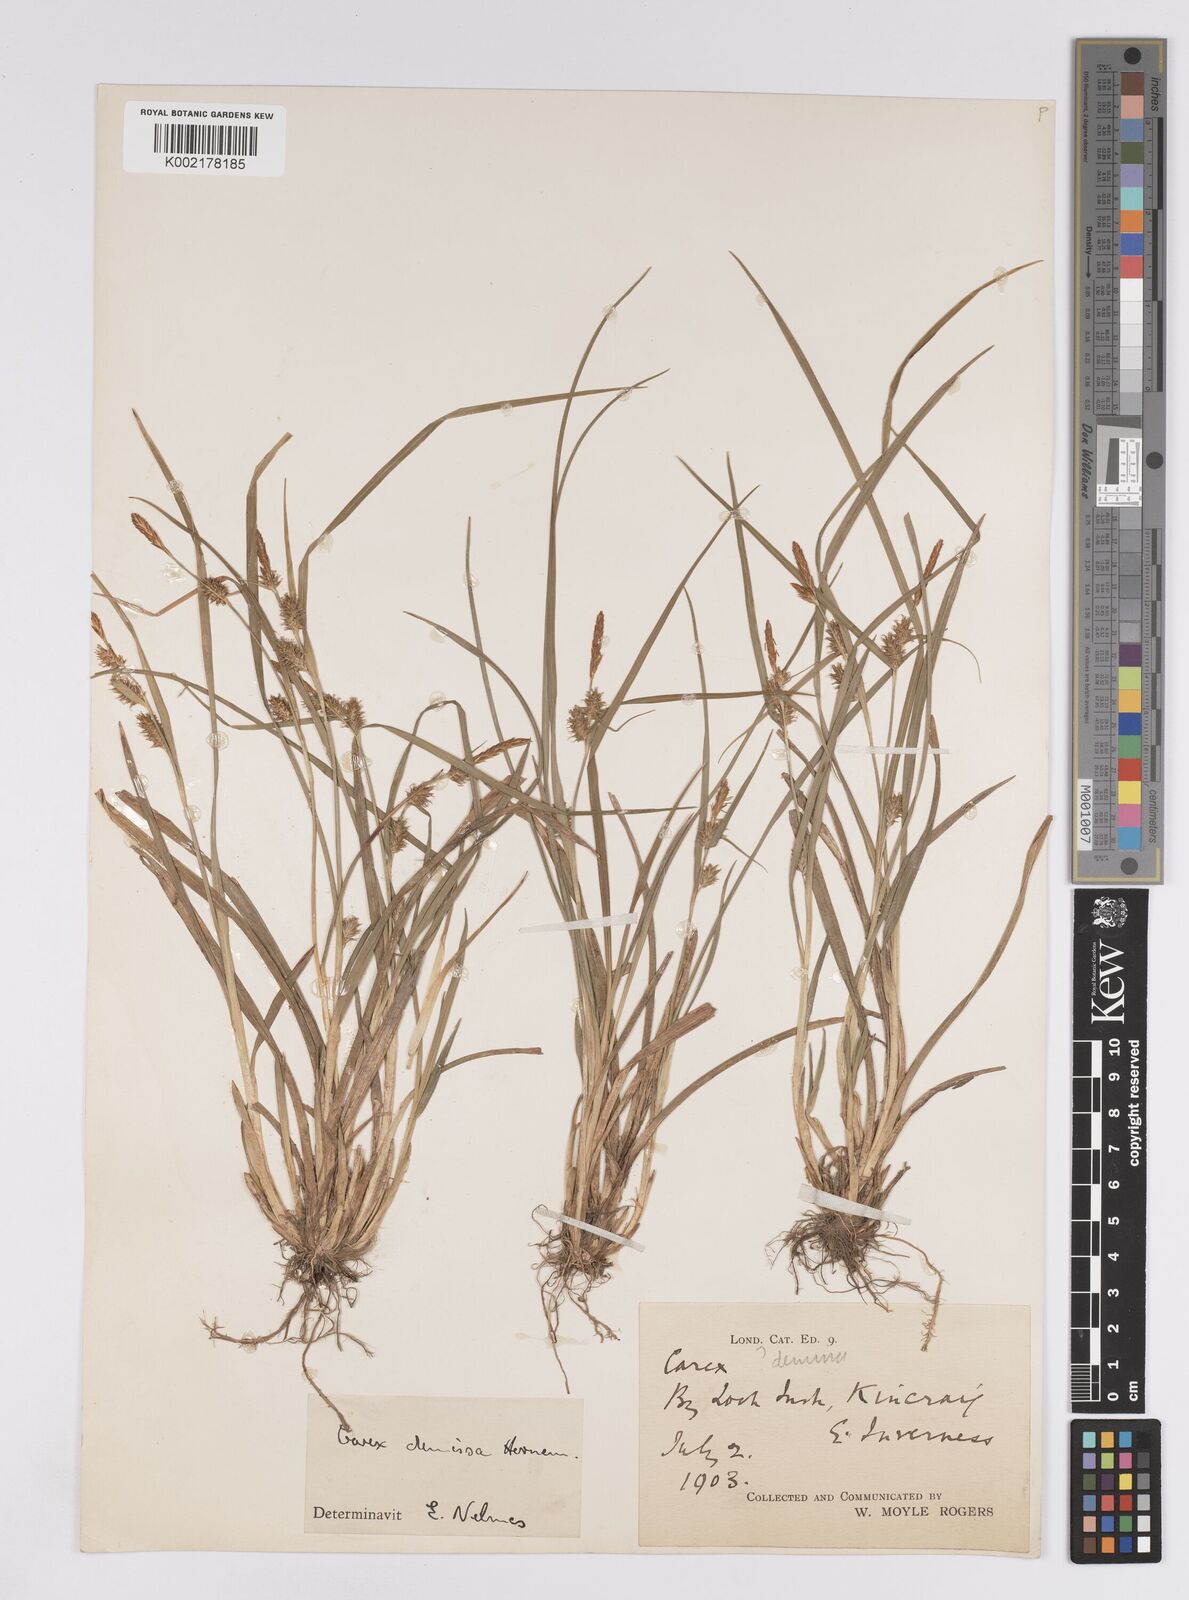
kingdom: Plantae
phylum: Tracheophyta
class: Liliopsida
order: Poales
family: Cyperaceae
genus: Carex
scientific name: Carex demissa
